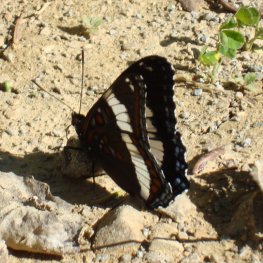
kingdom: Animalia
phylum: Arthropoda
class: Insecta
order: Lepidoptera
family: Nymphalidae
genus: Limenitis
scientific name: Limenitis arthemis
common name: Red-spotted Admiral
